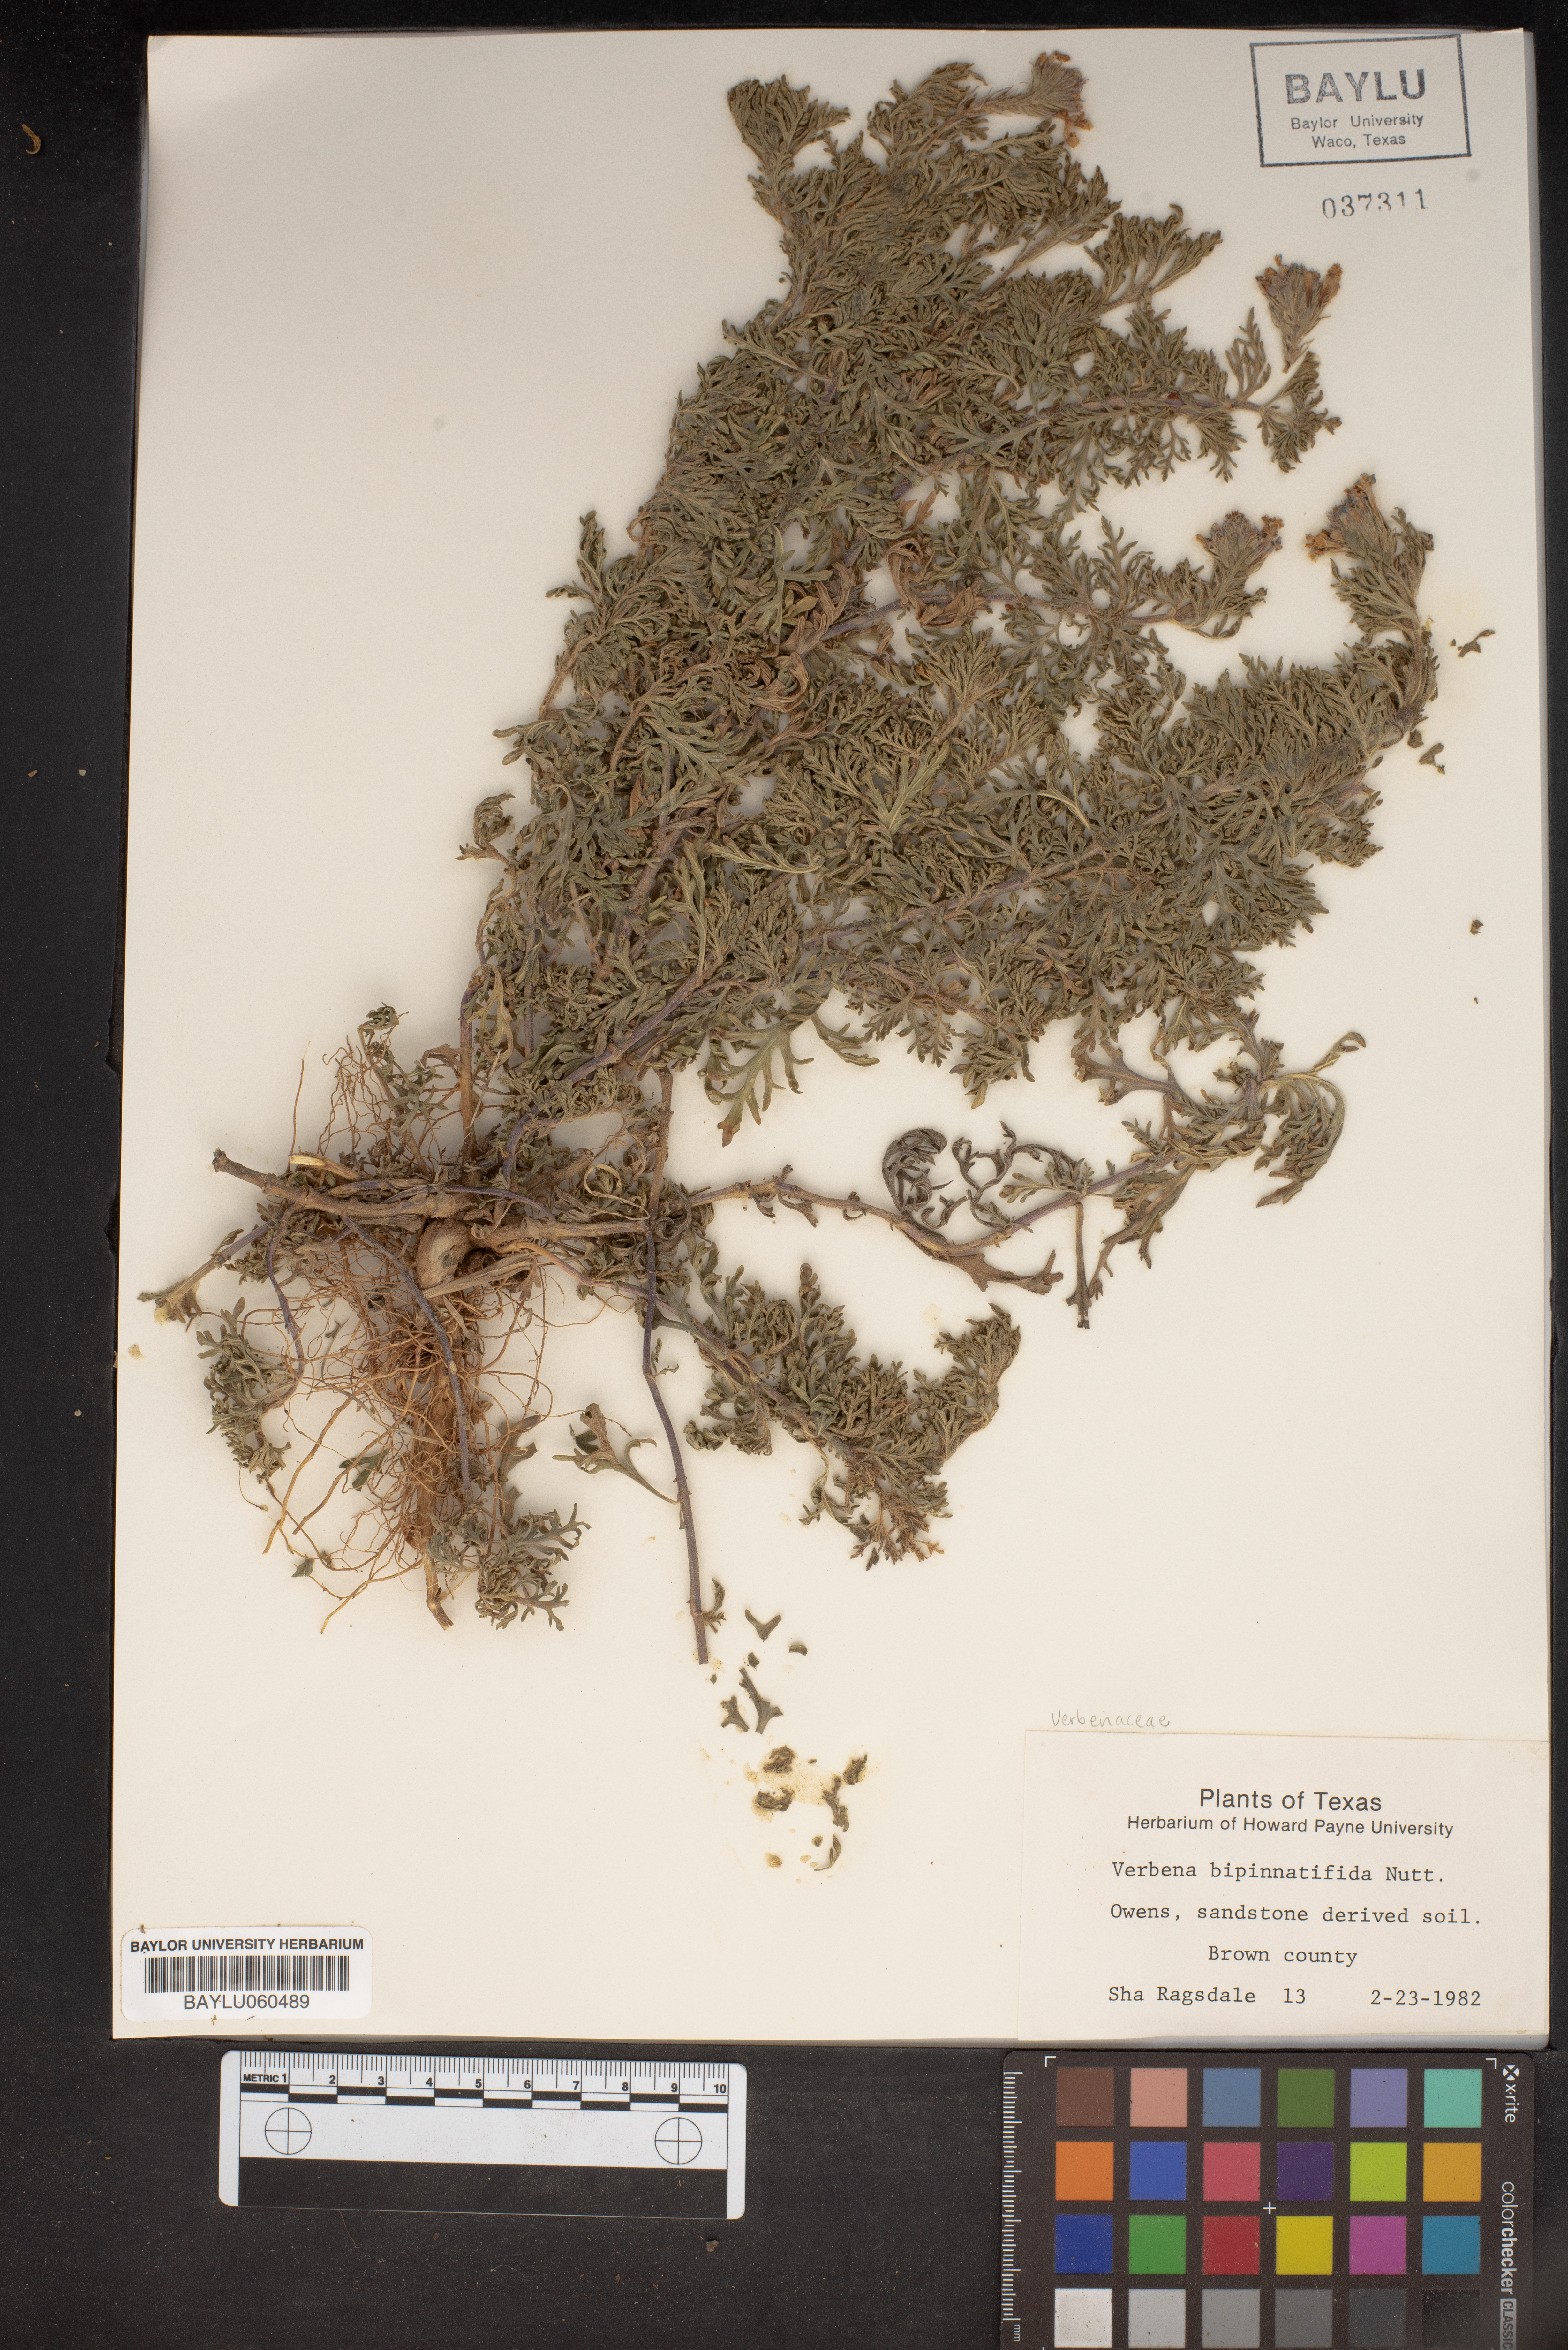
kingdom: Plantae
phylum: Tracheophyta
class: Magnoliopsida
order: Lamiales
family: Verbenaceae
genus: Verbena
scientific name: Verbena bipinnatifida
